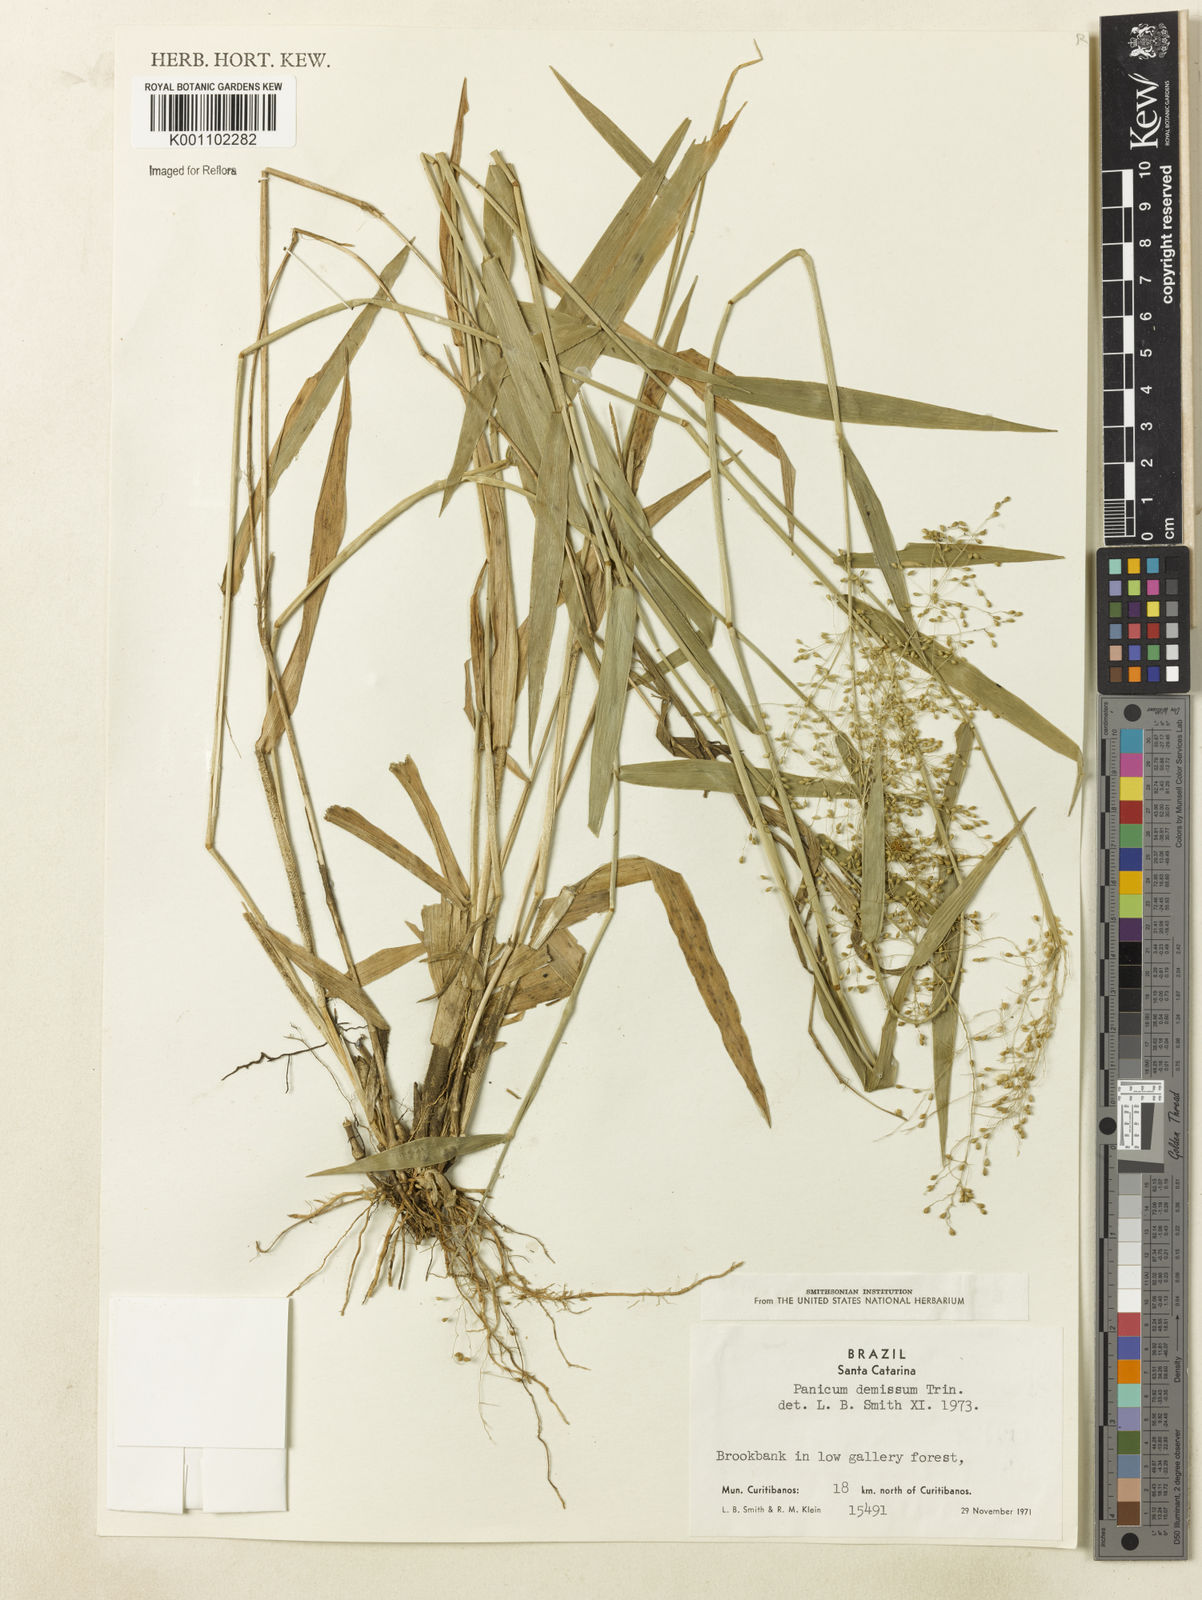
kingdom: Plantae
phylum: Tracheophyta
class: Liliopsida
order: Poales
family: Poaceae
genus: Dichanthelium
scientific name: Dichanthelium stigmosum
